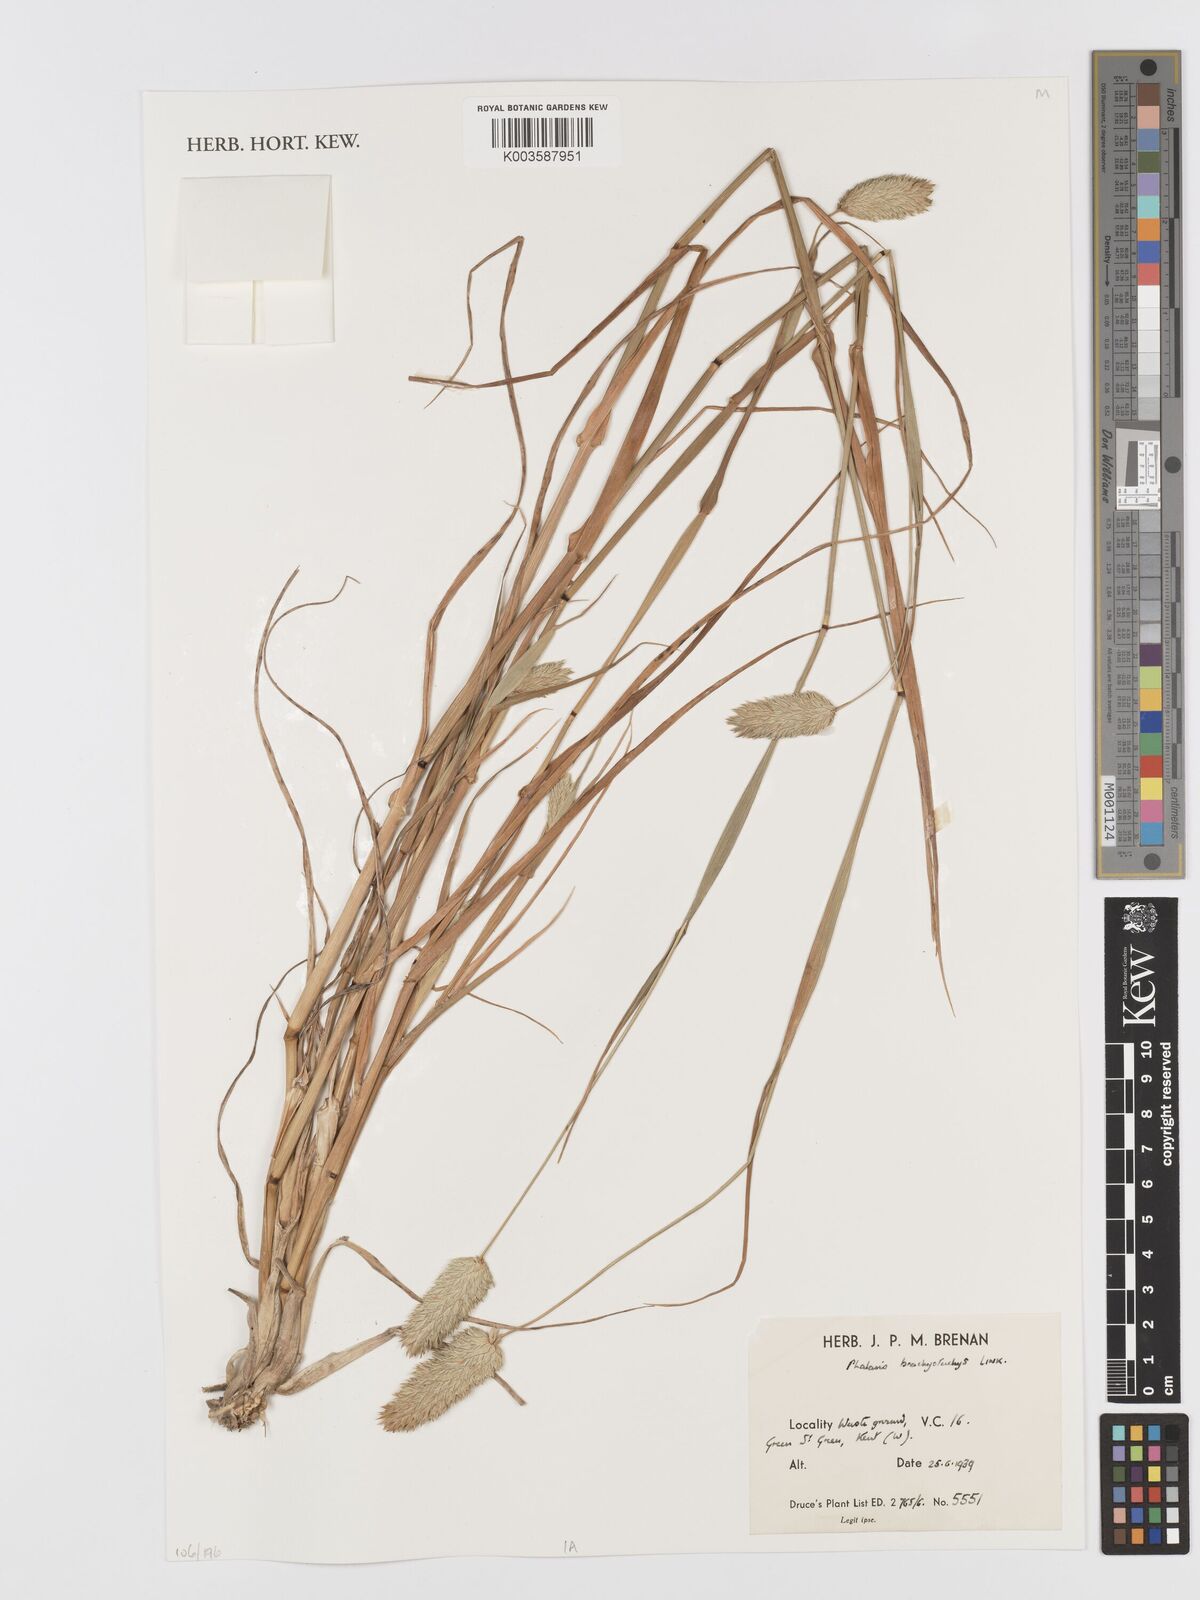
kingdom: Plantae
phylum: Tracheophyta
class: Liliopsida
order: Poales
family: Poaceae
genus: Phalaris
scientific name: Phalaris brachystachys
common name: Confused canary-grass
